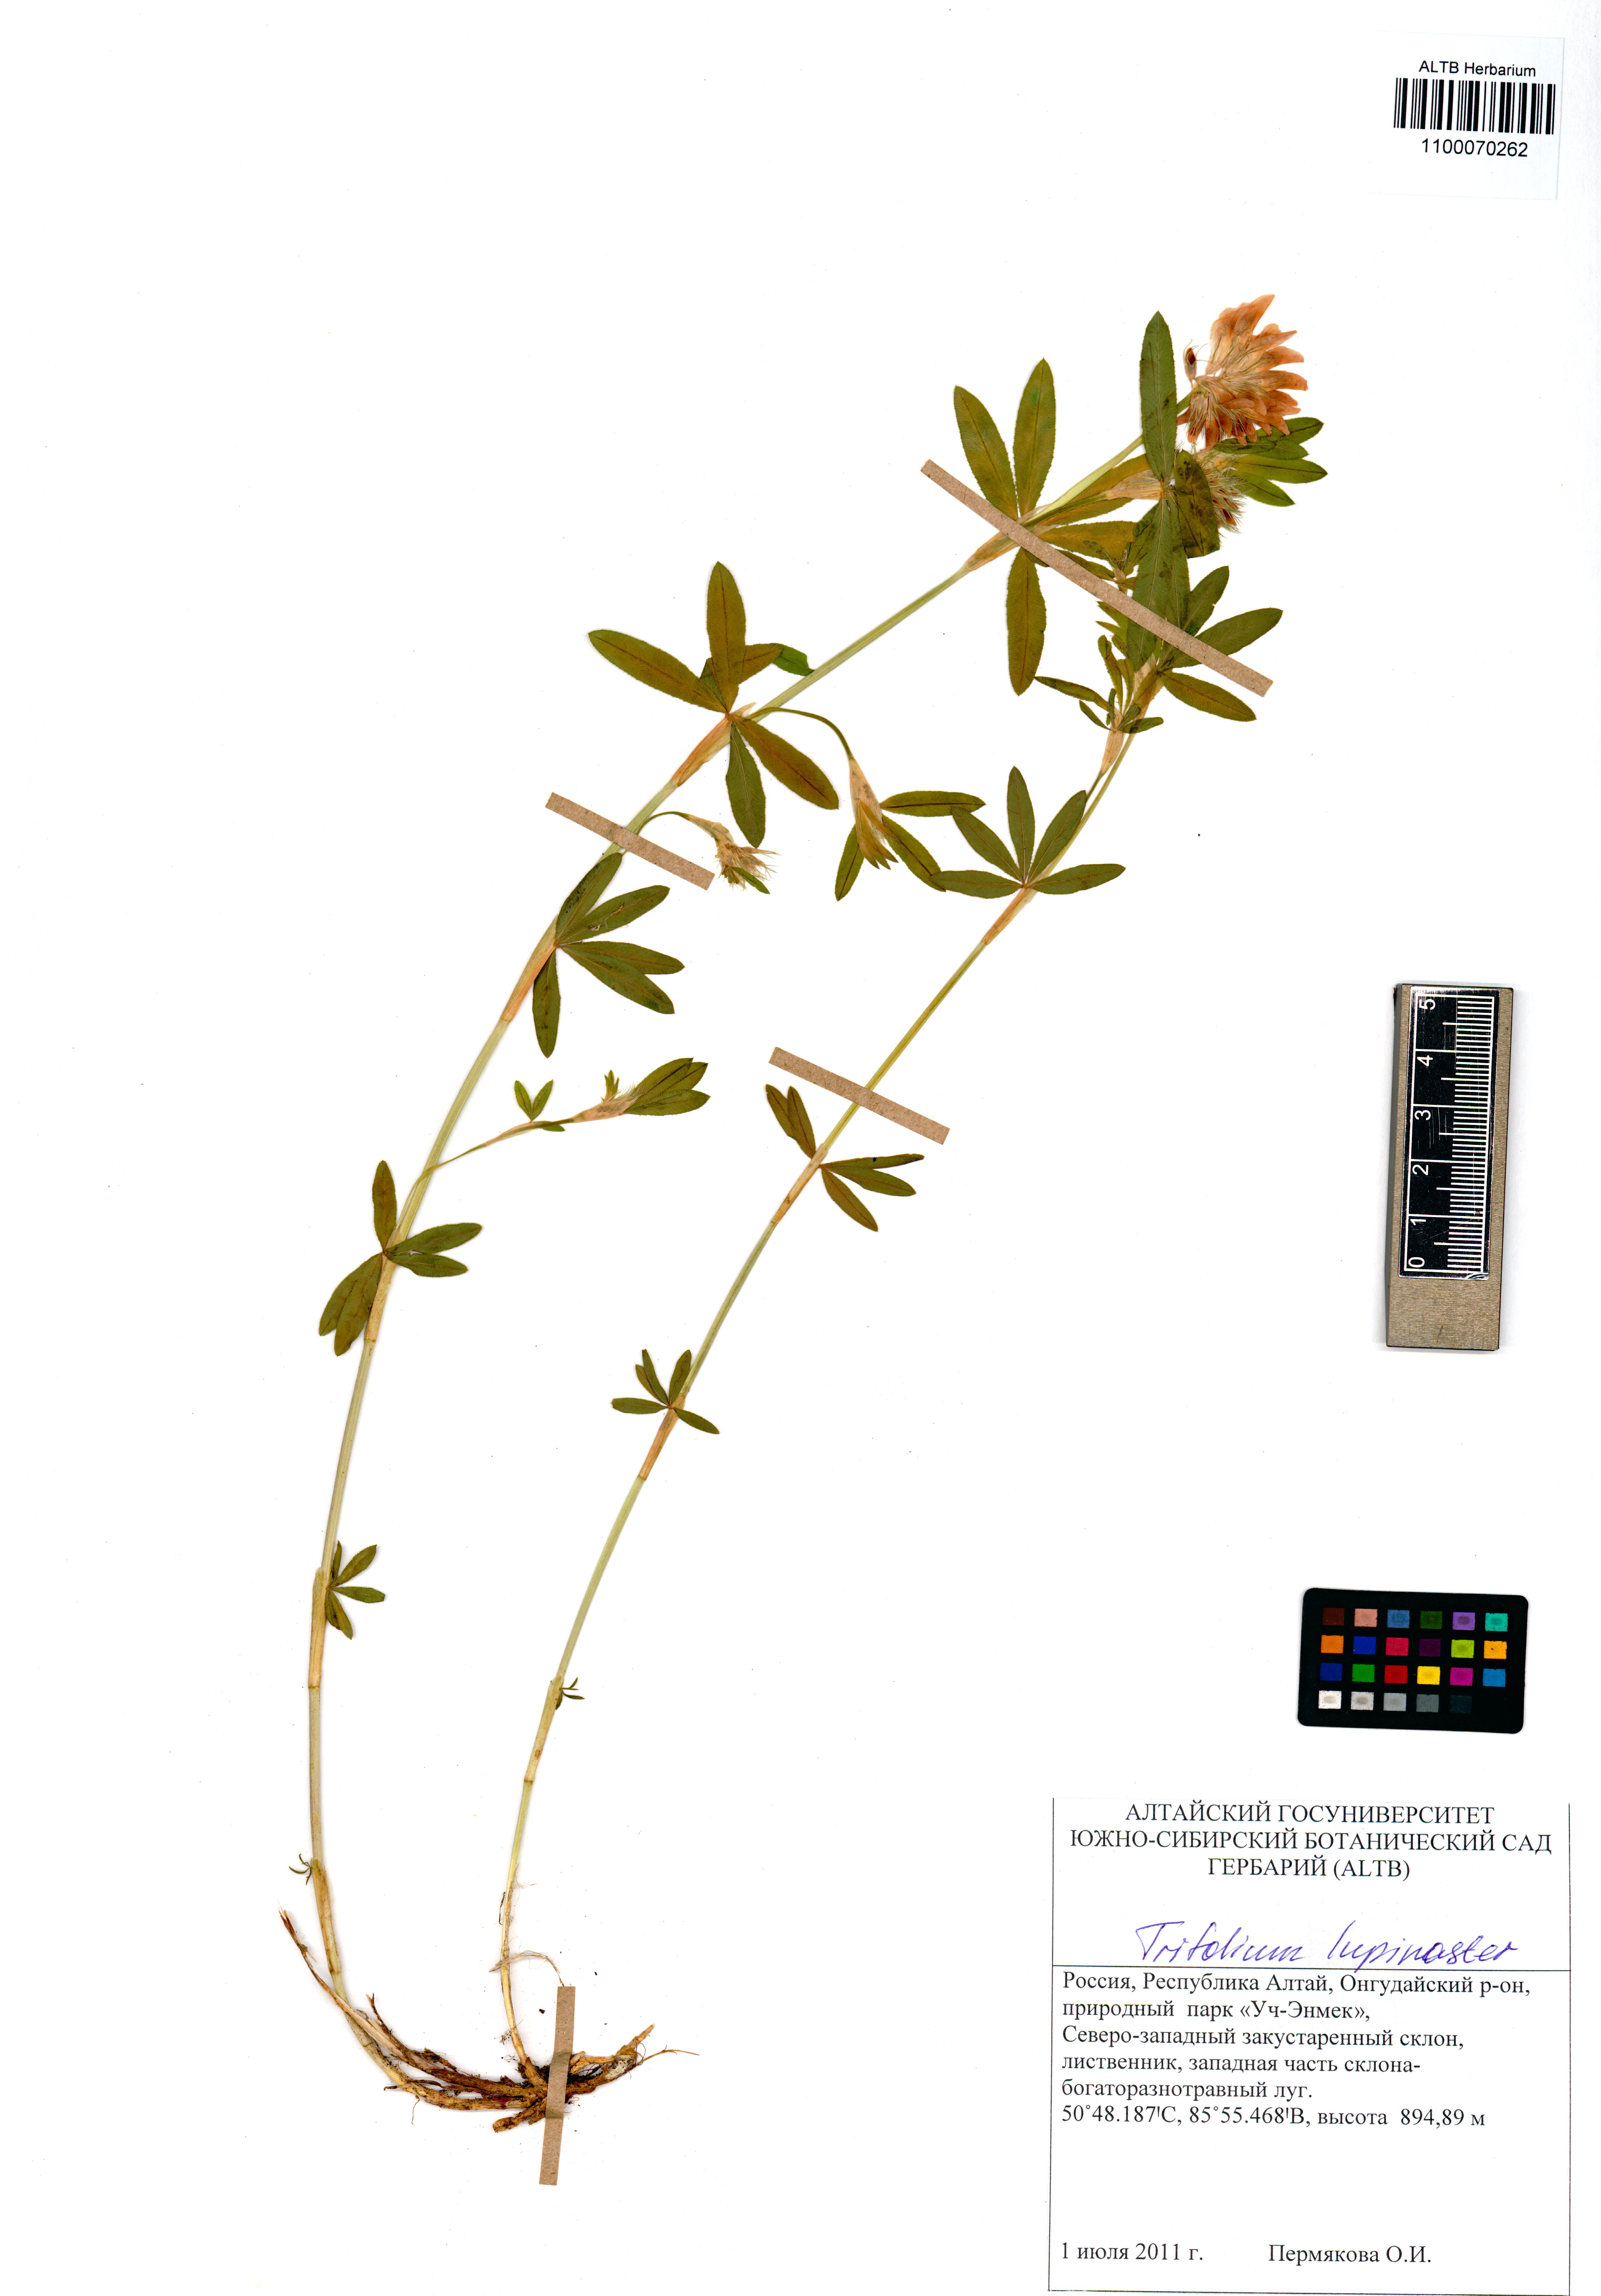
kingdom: Plantae
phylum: Tracheophyta
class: Magnoliopsida
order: Fabales
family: Fabaceae
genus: Trifolium
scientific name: Trifolium lupinaster
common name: Lupine clover
